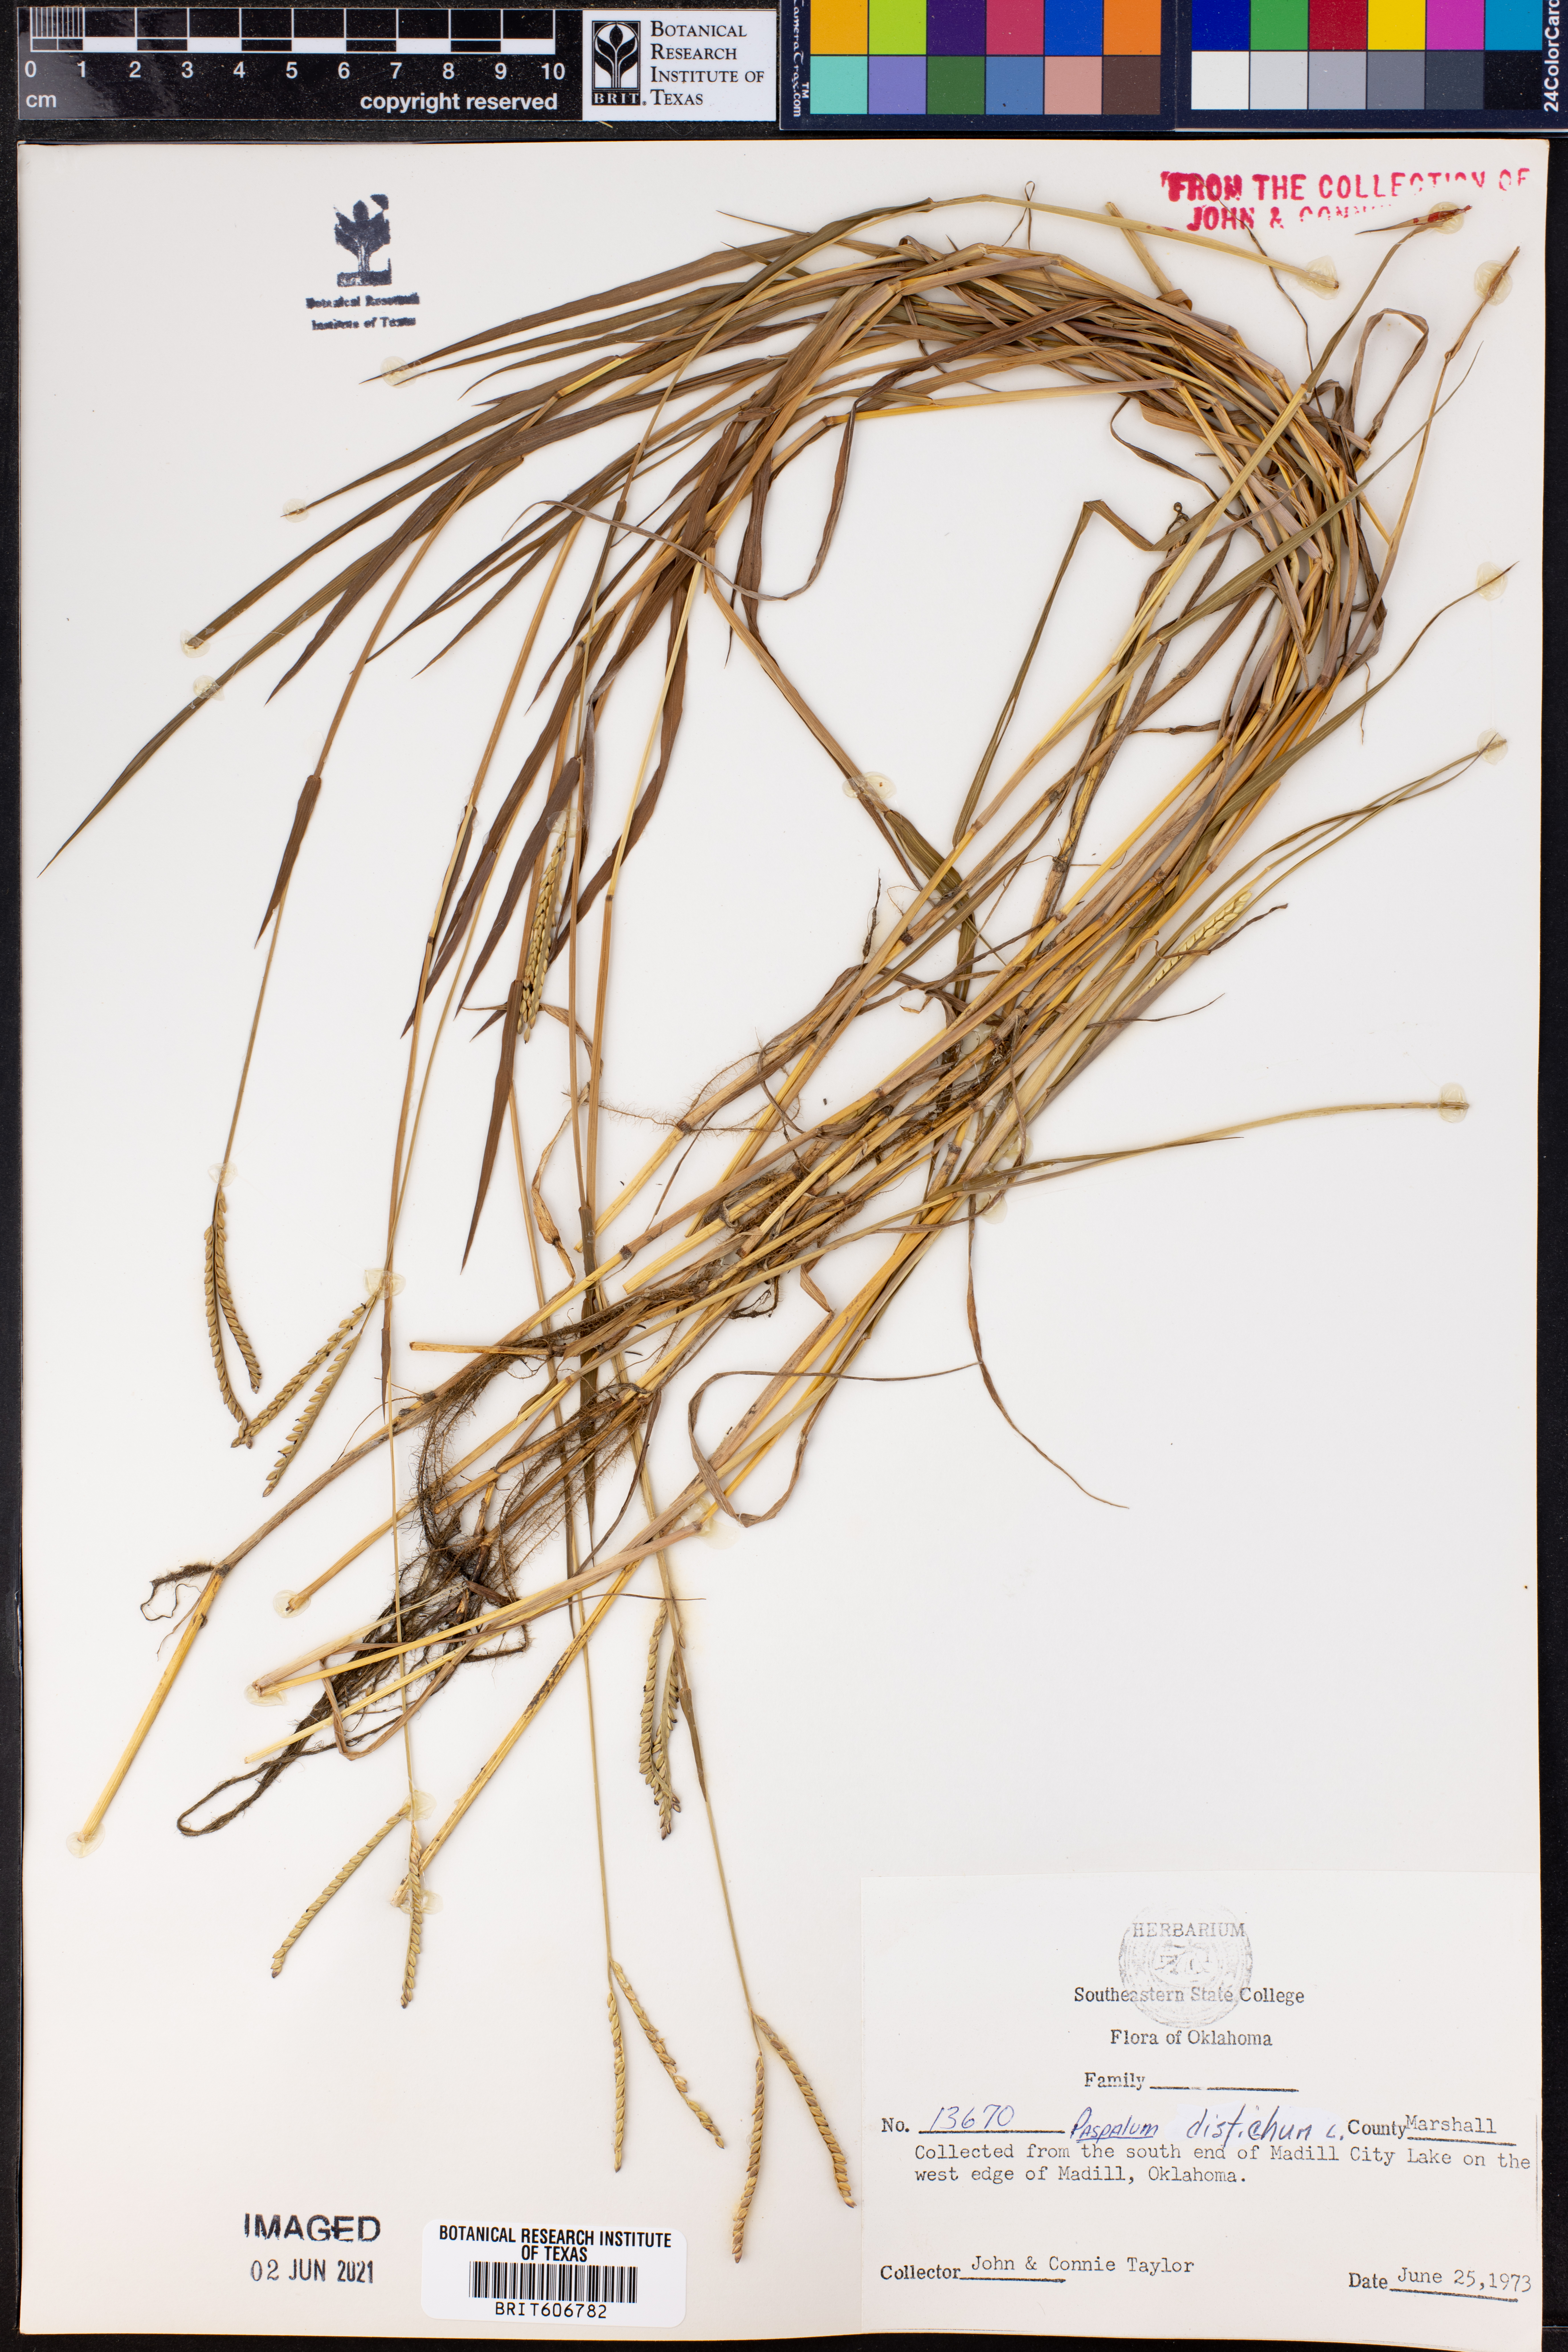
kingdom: Plantae
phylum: Tracheophyta
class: Liliopsida
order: Poales
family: Poaceae
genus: Paspalum
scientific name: Paspalum distichum
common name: Knotgrass
